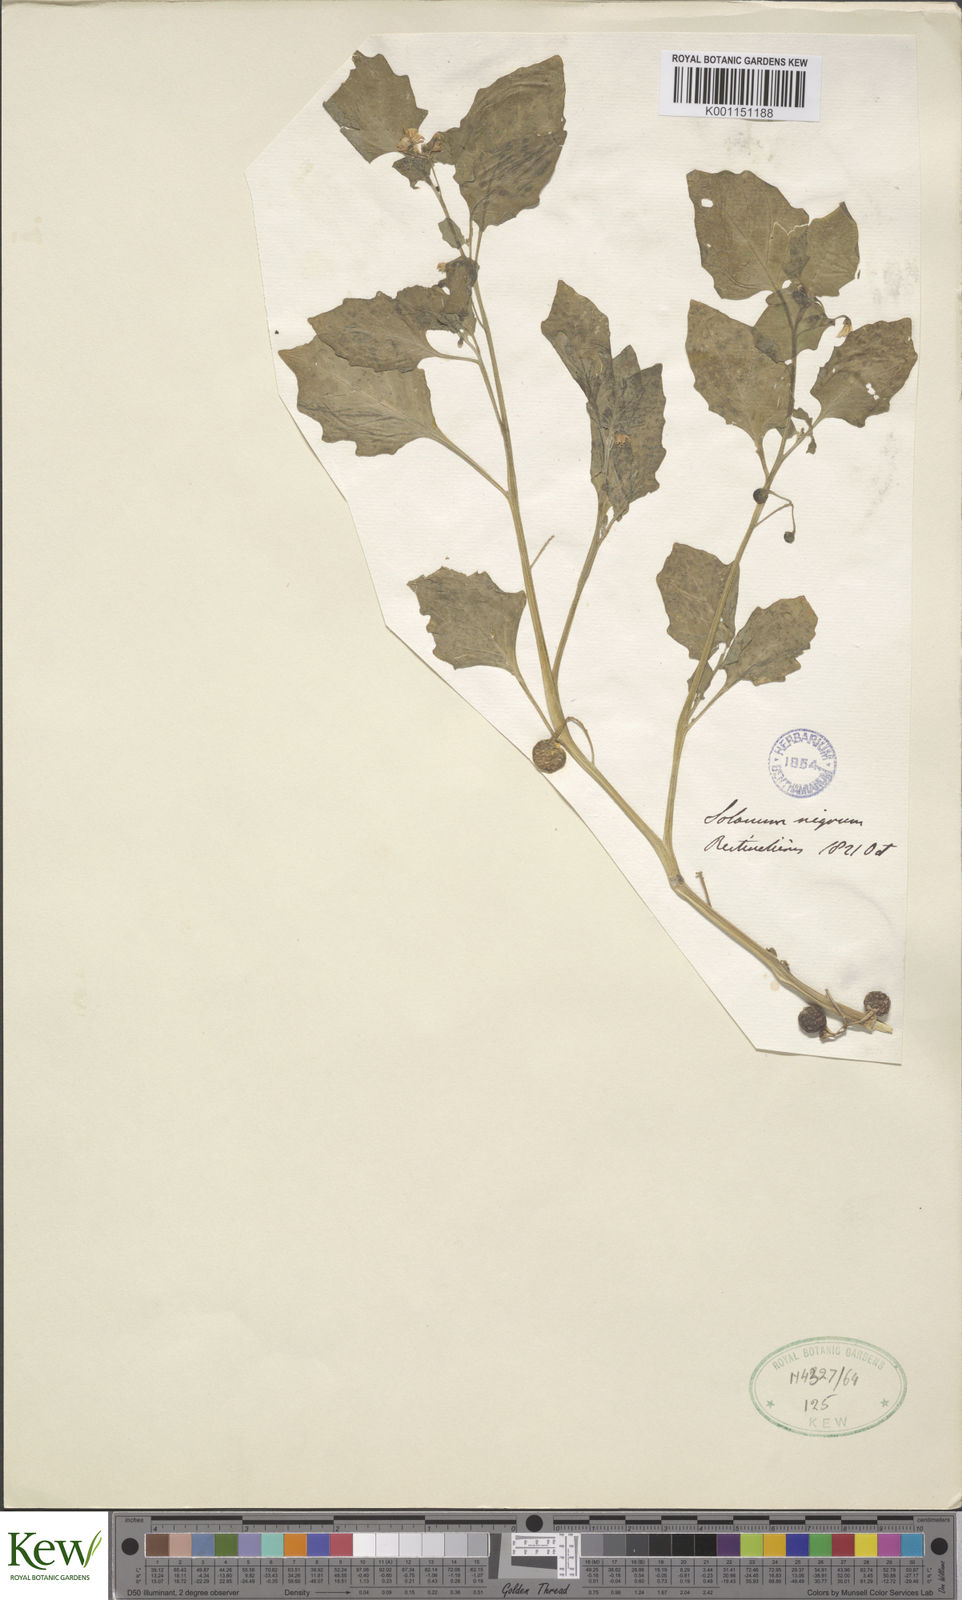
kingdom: Plantae
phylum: Tracheophyta
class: Magnoliopsida
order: Solanales
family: Solanaceae
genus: Solanum
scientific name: Solanum alatum
